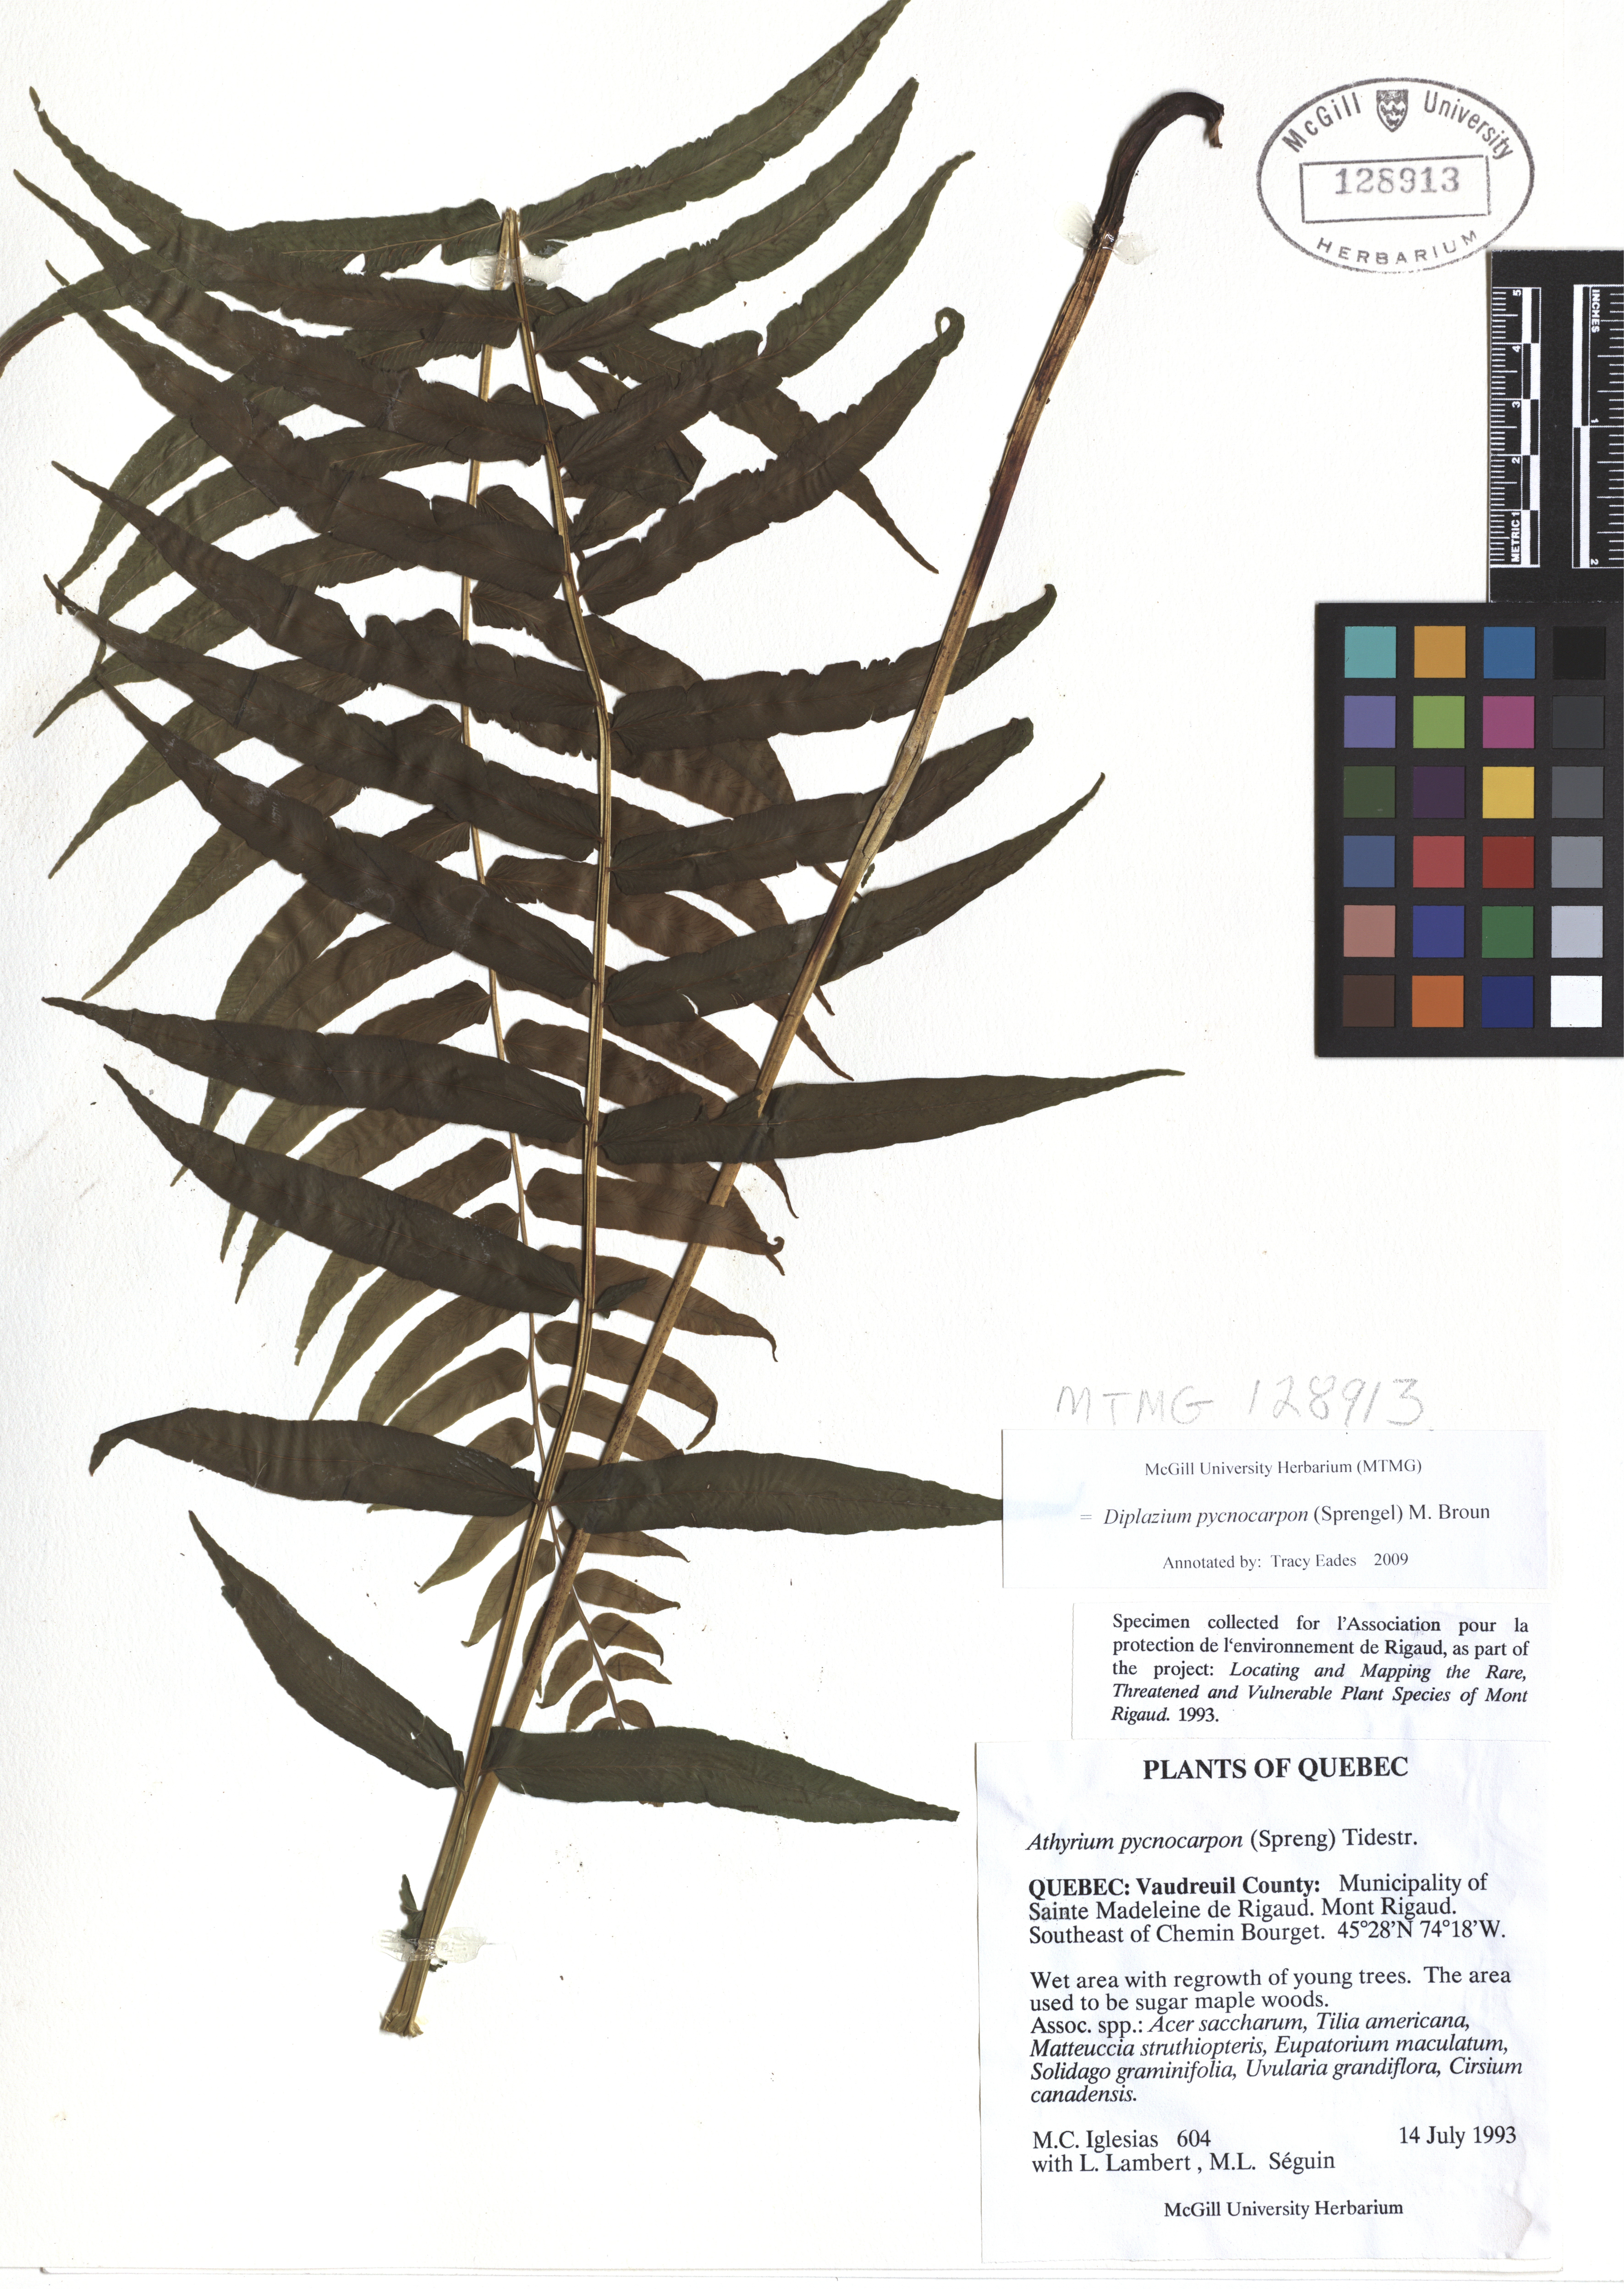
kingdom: Plantae
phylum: Tracheophyta
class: Polypodiopsida
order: Polypodiales
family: Diplaziopsidaceae
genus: Homalosorus
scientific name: Homalosorus pycnocarpos
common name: Glade fern
